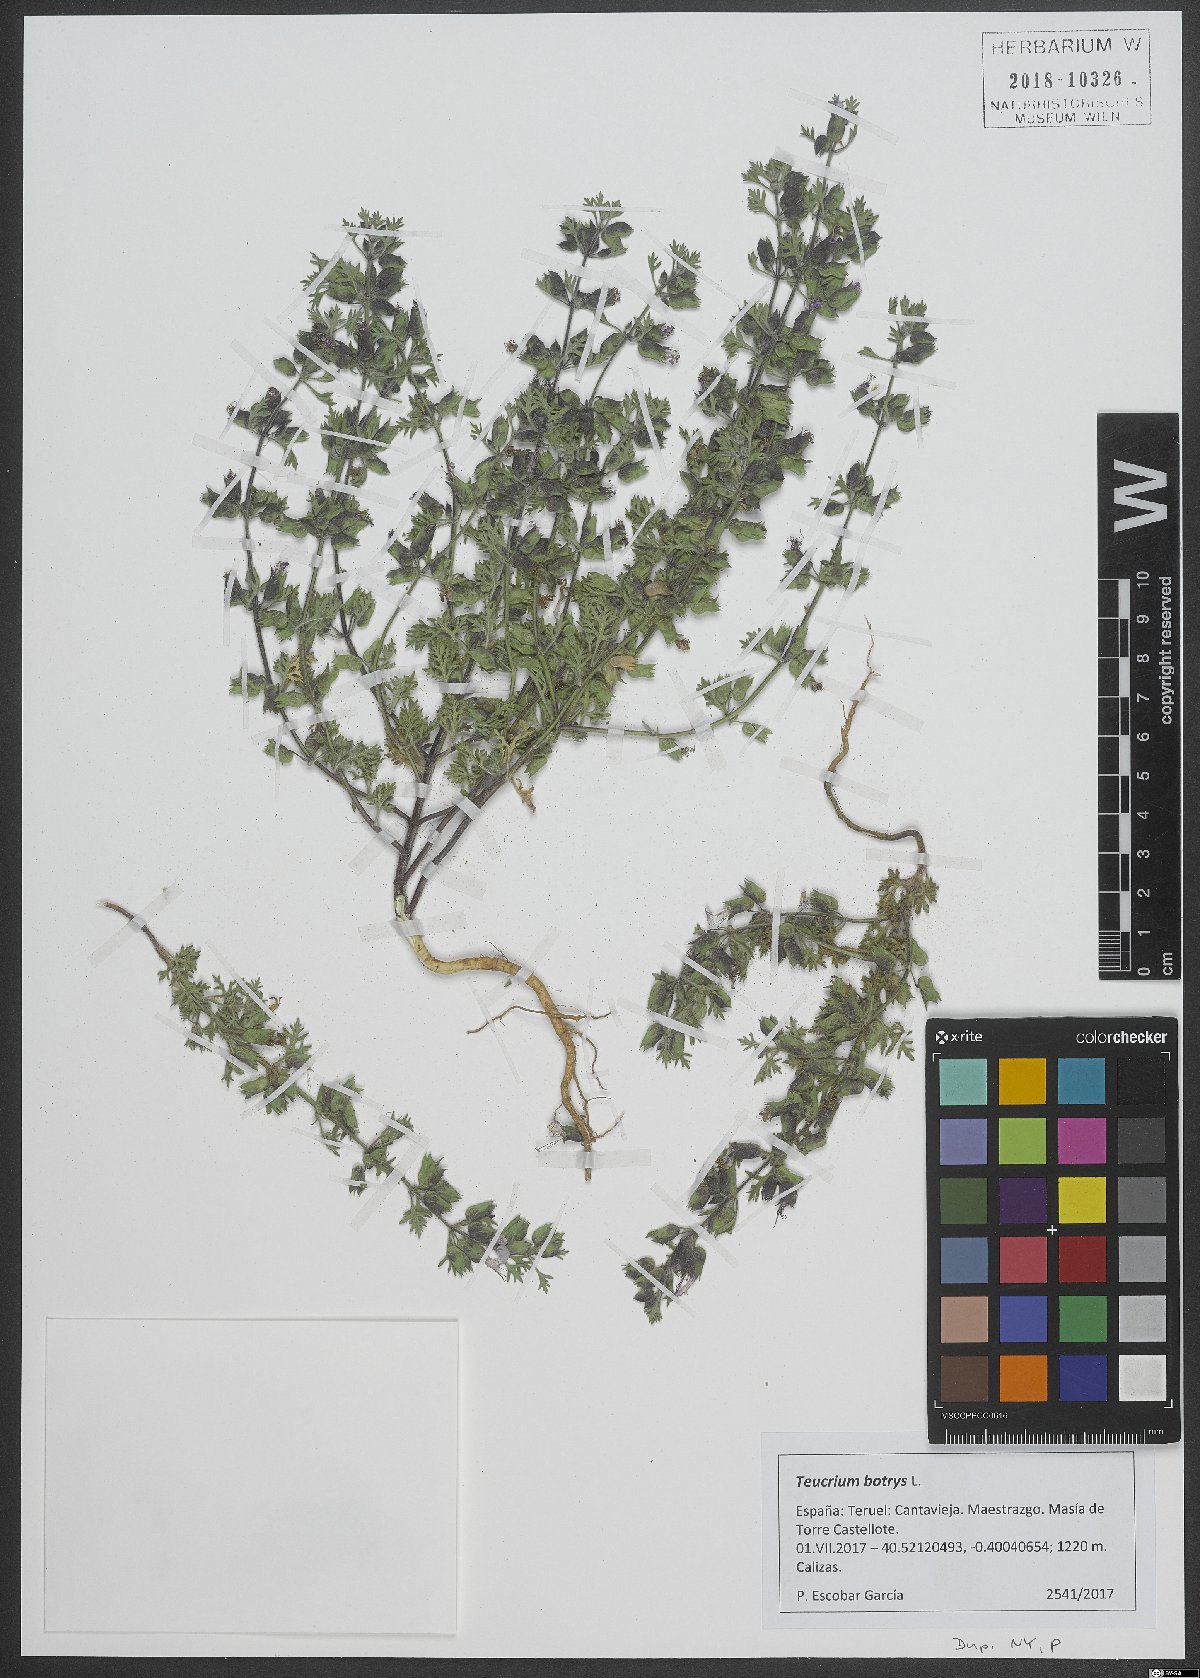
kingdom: Plantae
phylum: Tracheophyta
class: Magnoliopsida
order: Lamiales
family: Lamiaceae
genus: Teucrium
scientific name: Teucrium botrys
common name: Cut-leaved germander
